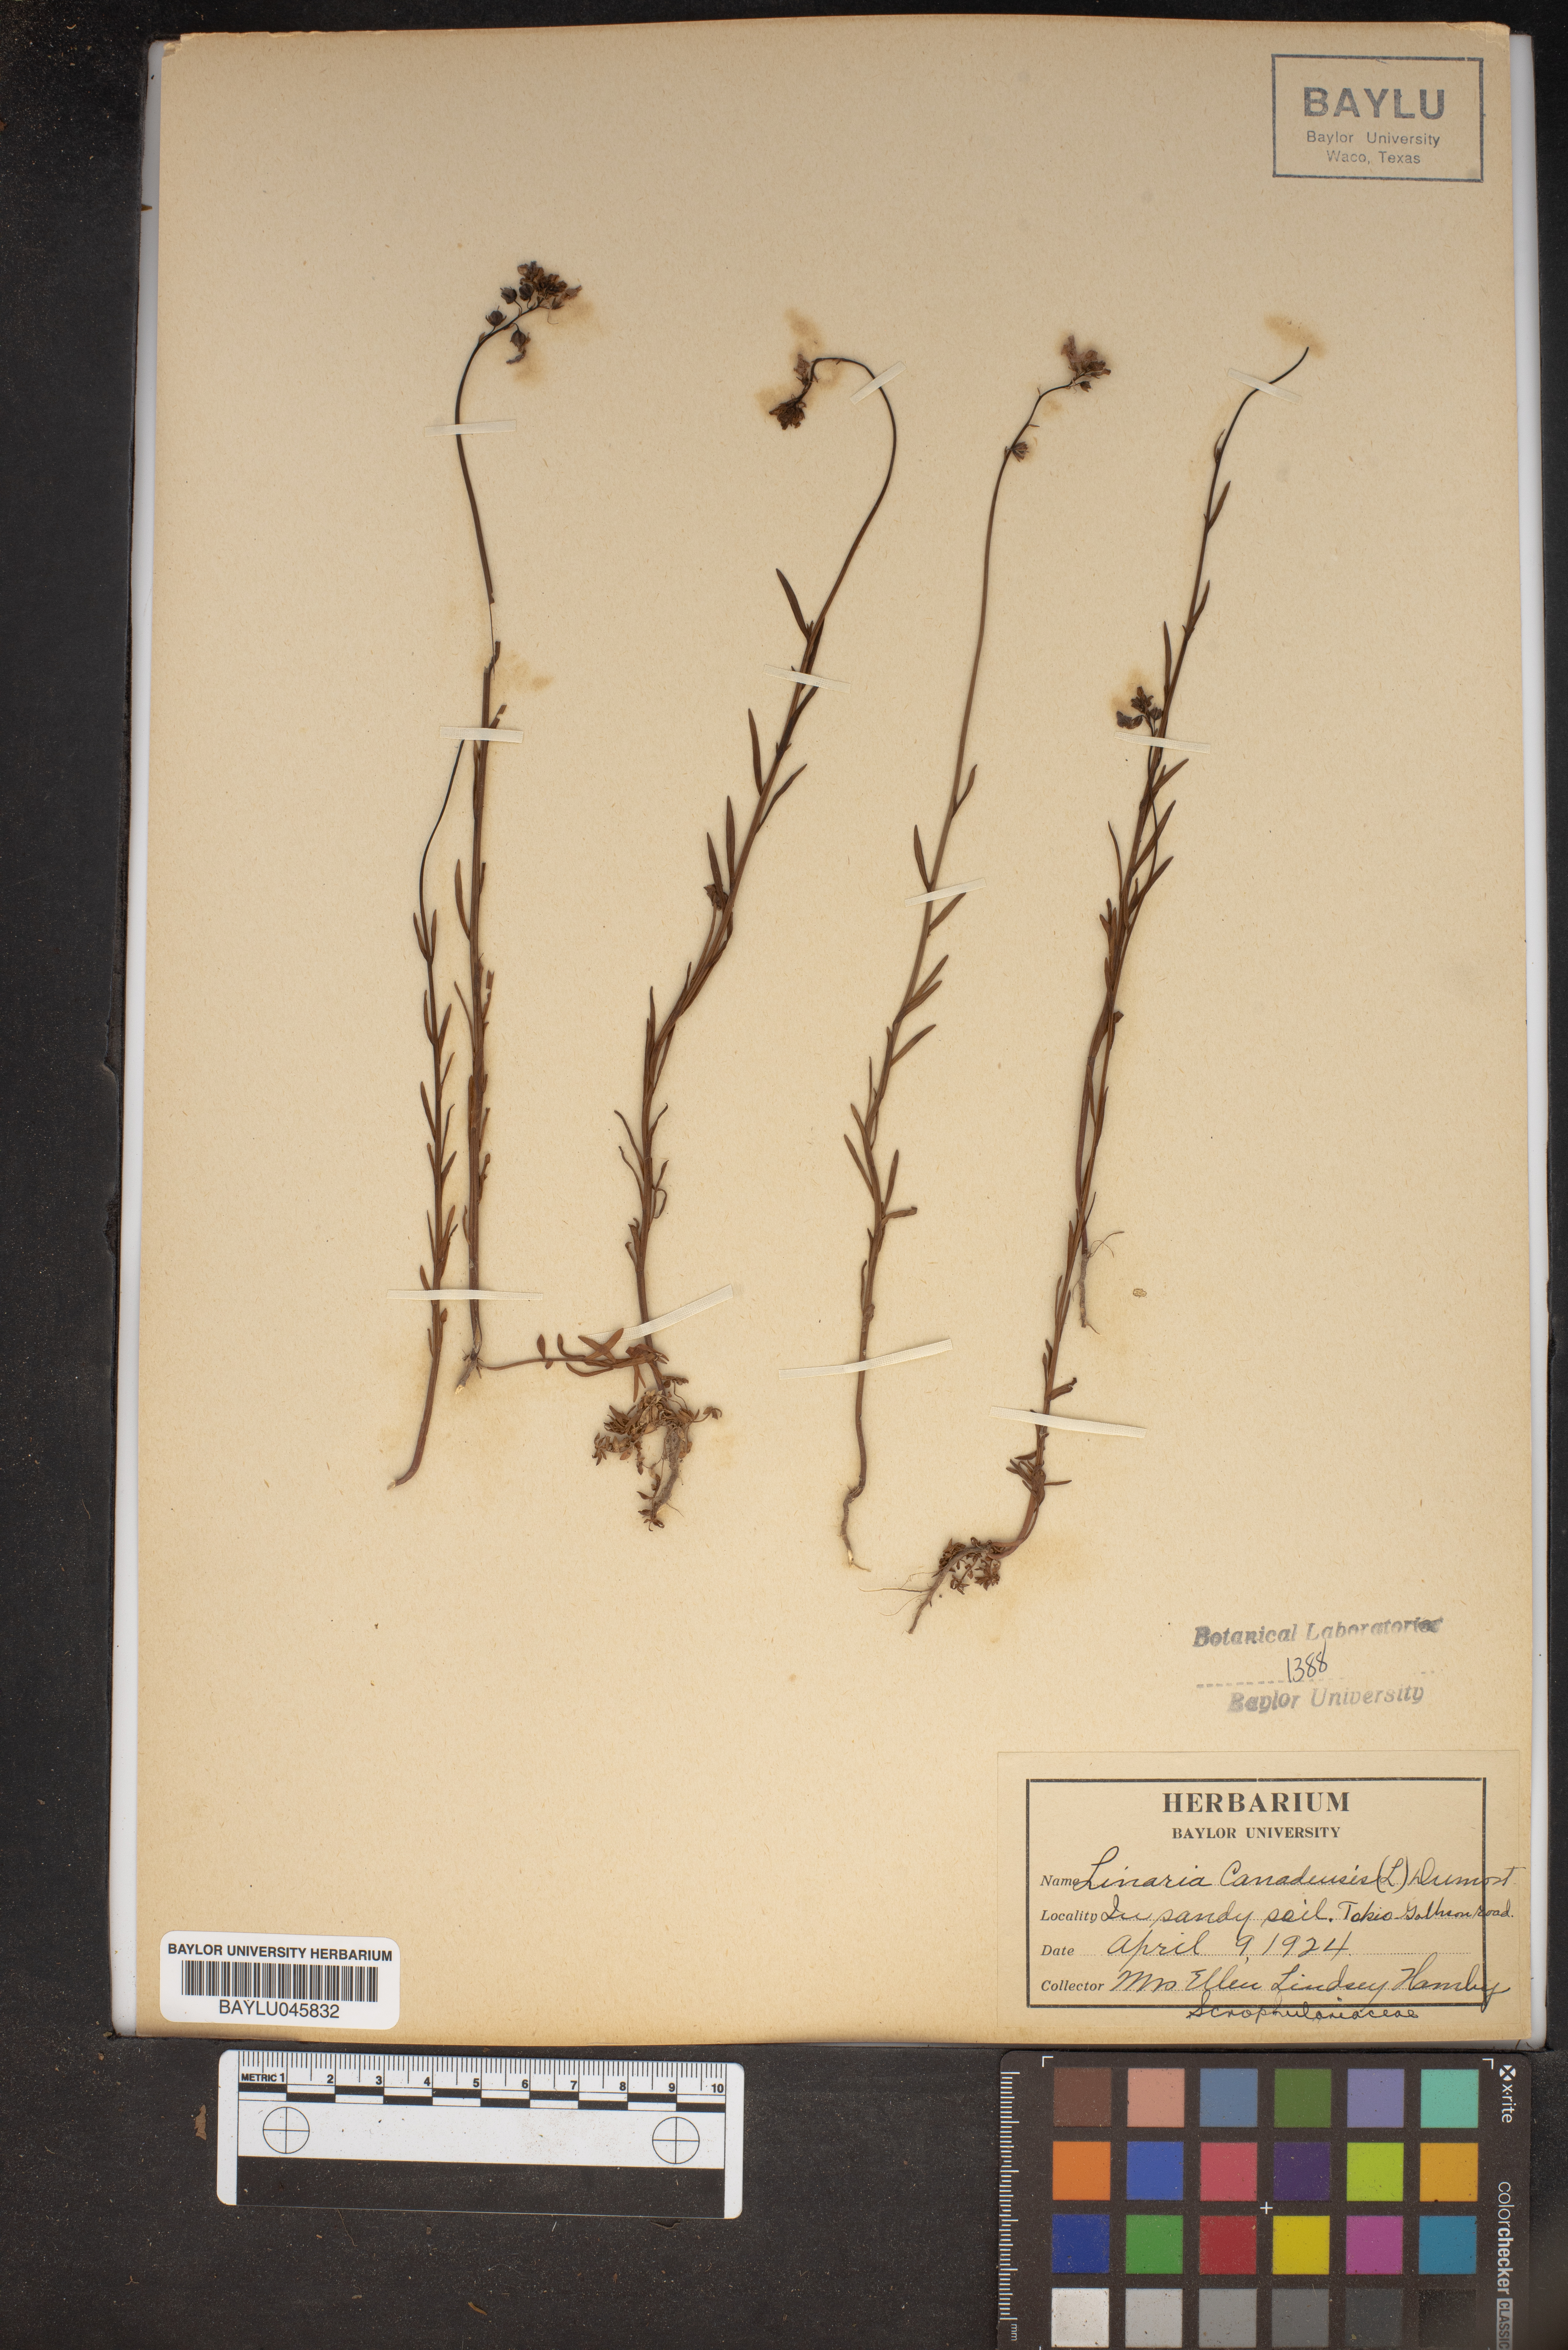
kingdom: Plantae
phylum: Tracheophyta
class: Magnoliopsida
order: Lamiales
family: Plantaginaceae
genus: Nuttallanthus
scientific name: Nuttallanthus canadensis
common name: Blue toadflax
